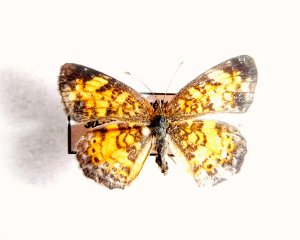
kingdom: Animalia
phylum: Arthropoda
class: Insecta
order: Lepidoptera
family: Nymphalidae
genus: Phyciodes
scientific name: Phyciodes tharos
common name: Pearl Crescent
